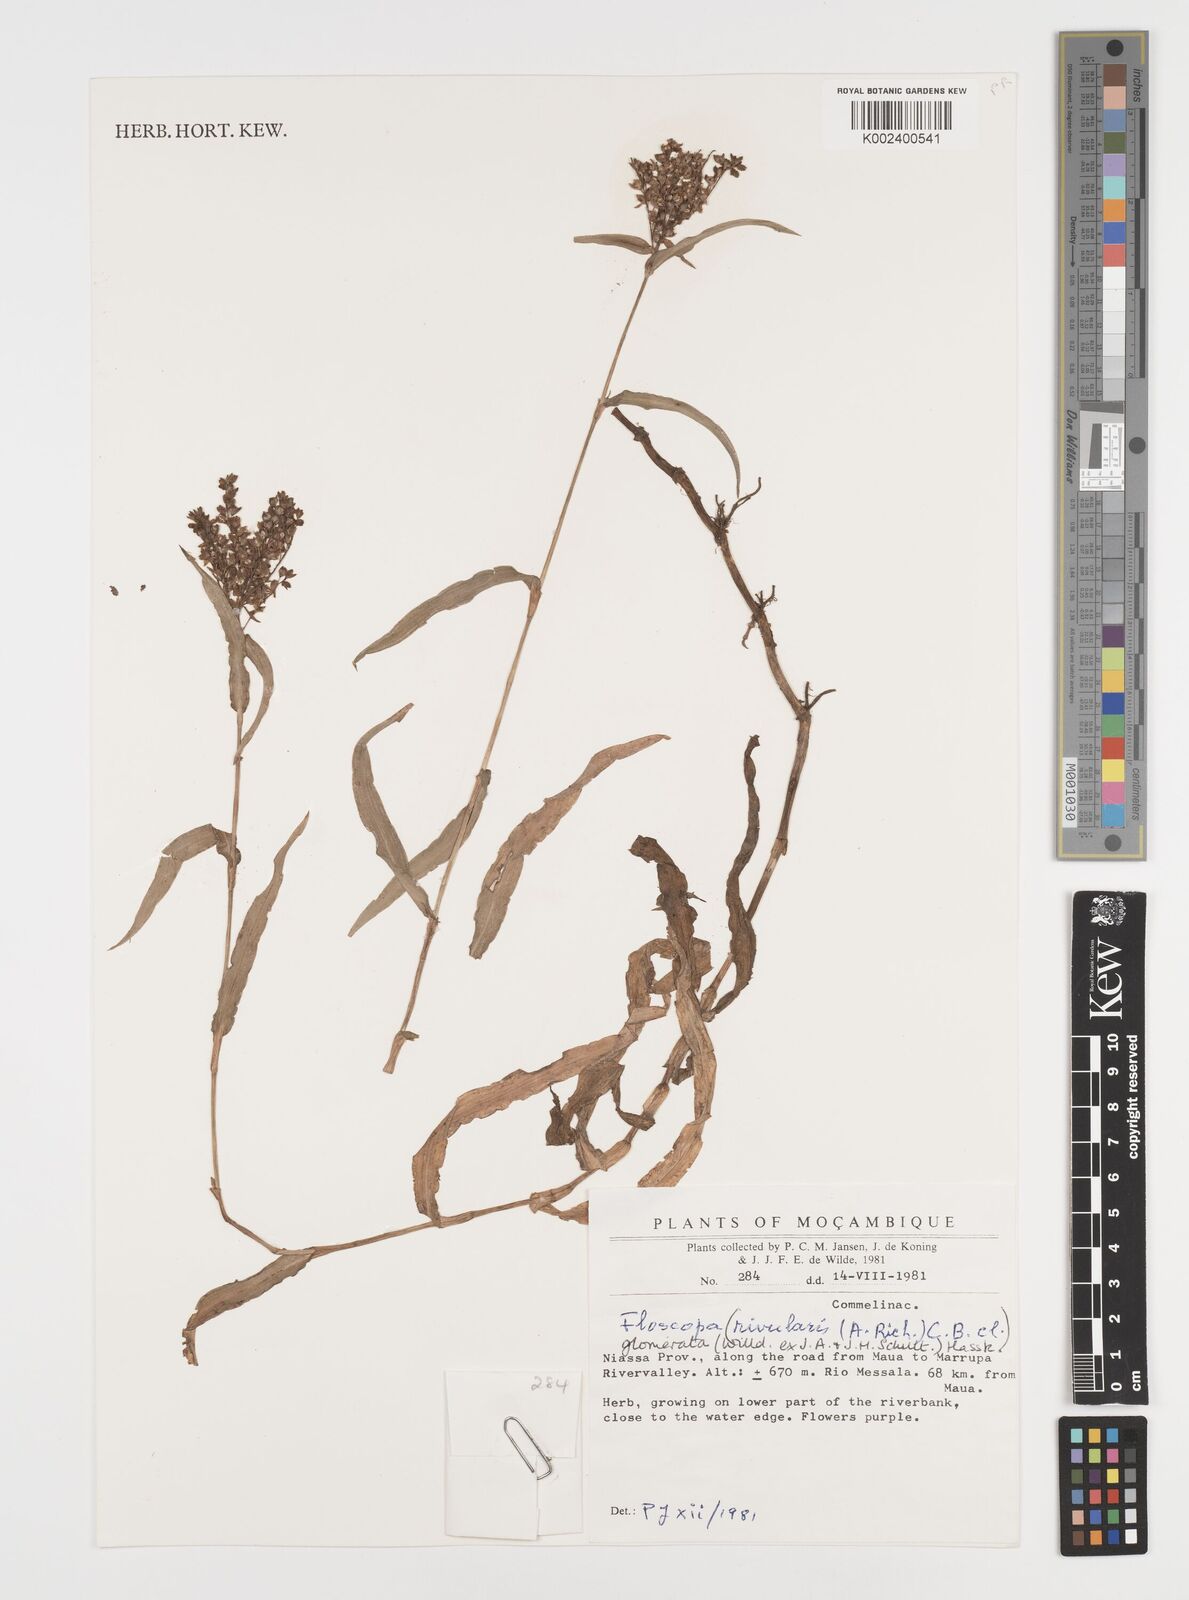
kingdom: Plantae
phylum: Tracheophyta
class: Liliopsida
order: Commelinales
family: Commelinaceae
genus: Floscopa
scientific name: Floscopa glomerata
